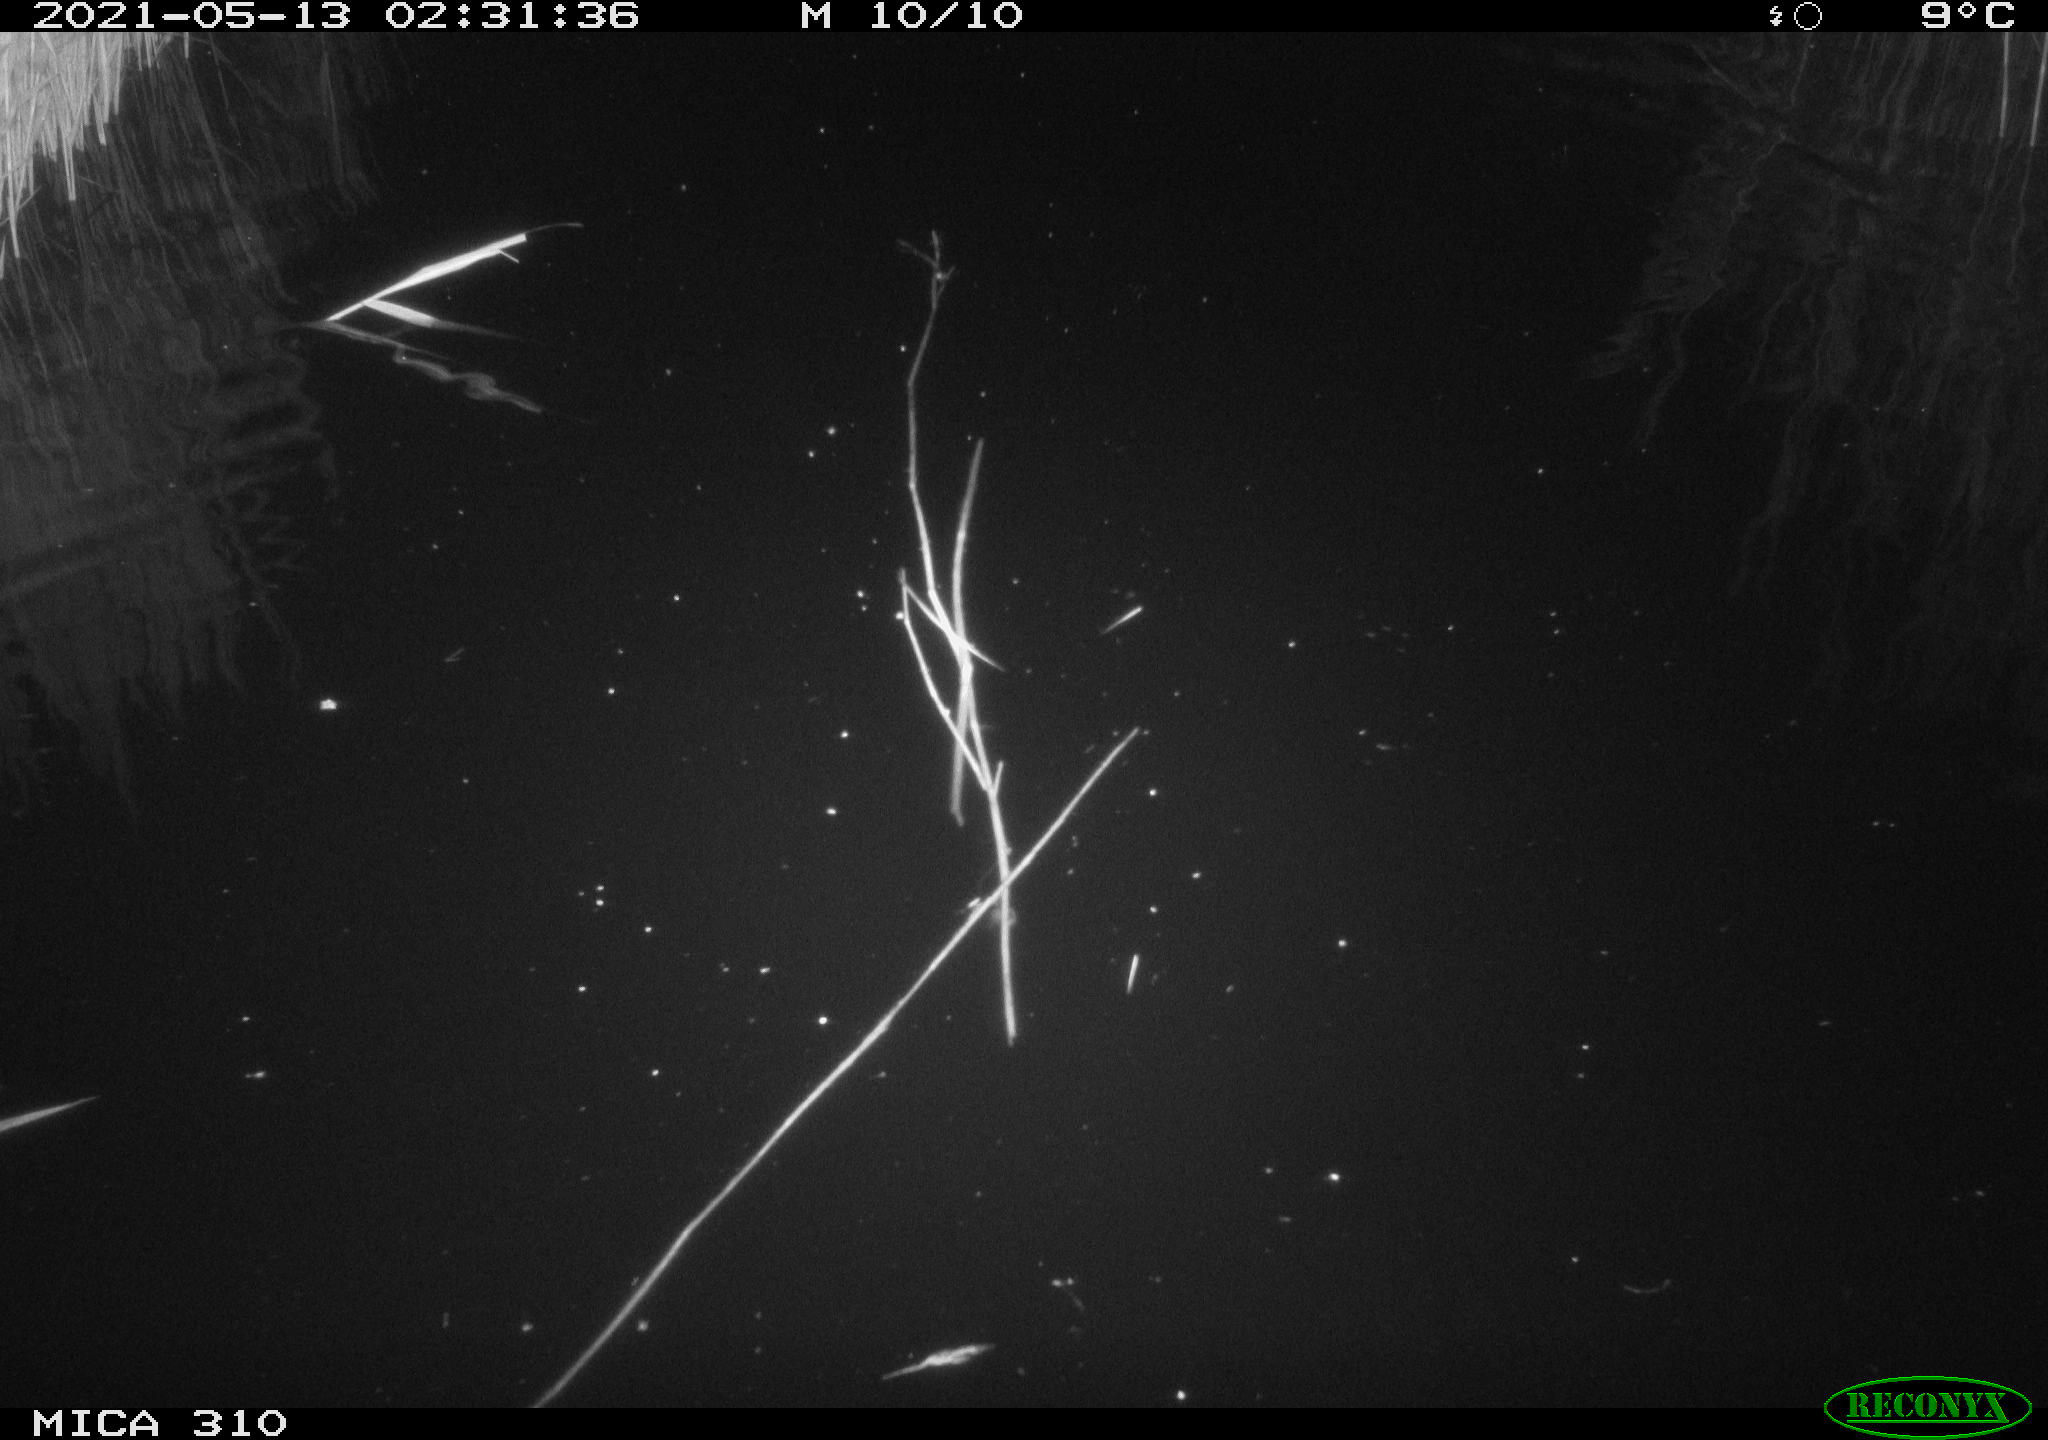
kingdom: Animalia
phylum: Chordata
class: Aves
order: Anseriformes
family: Anatidae
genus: Anas
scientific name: Anas platyrhynchos
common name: Mallard
